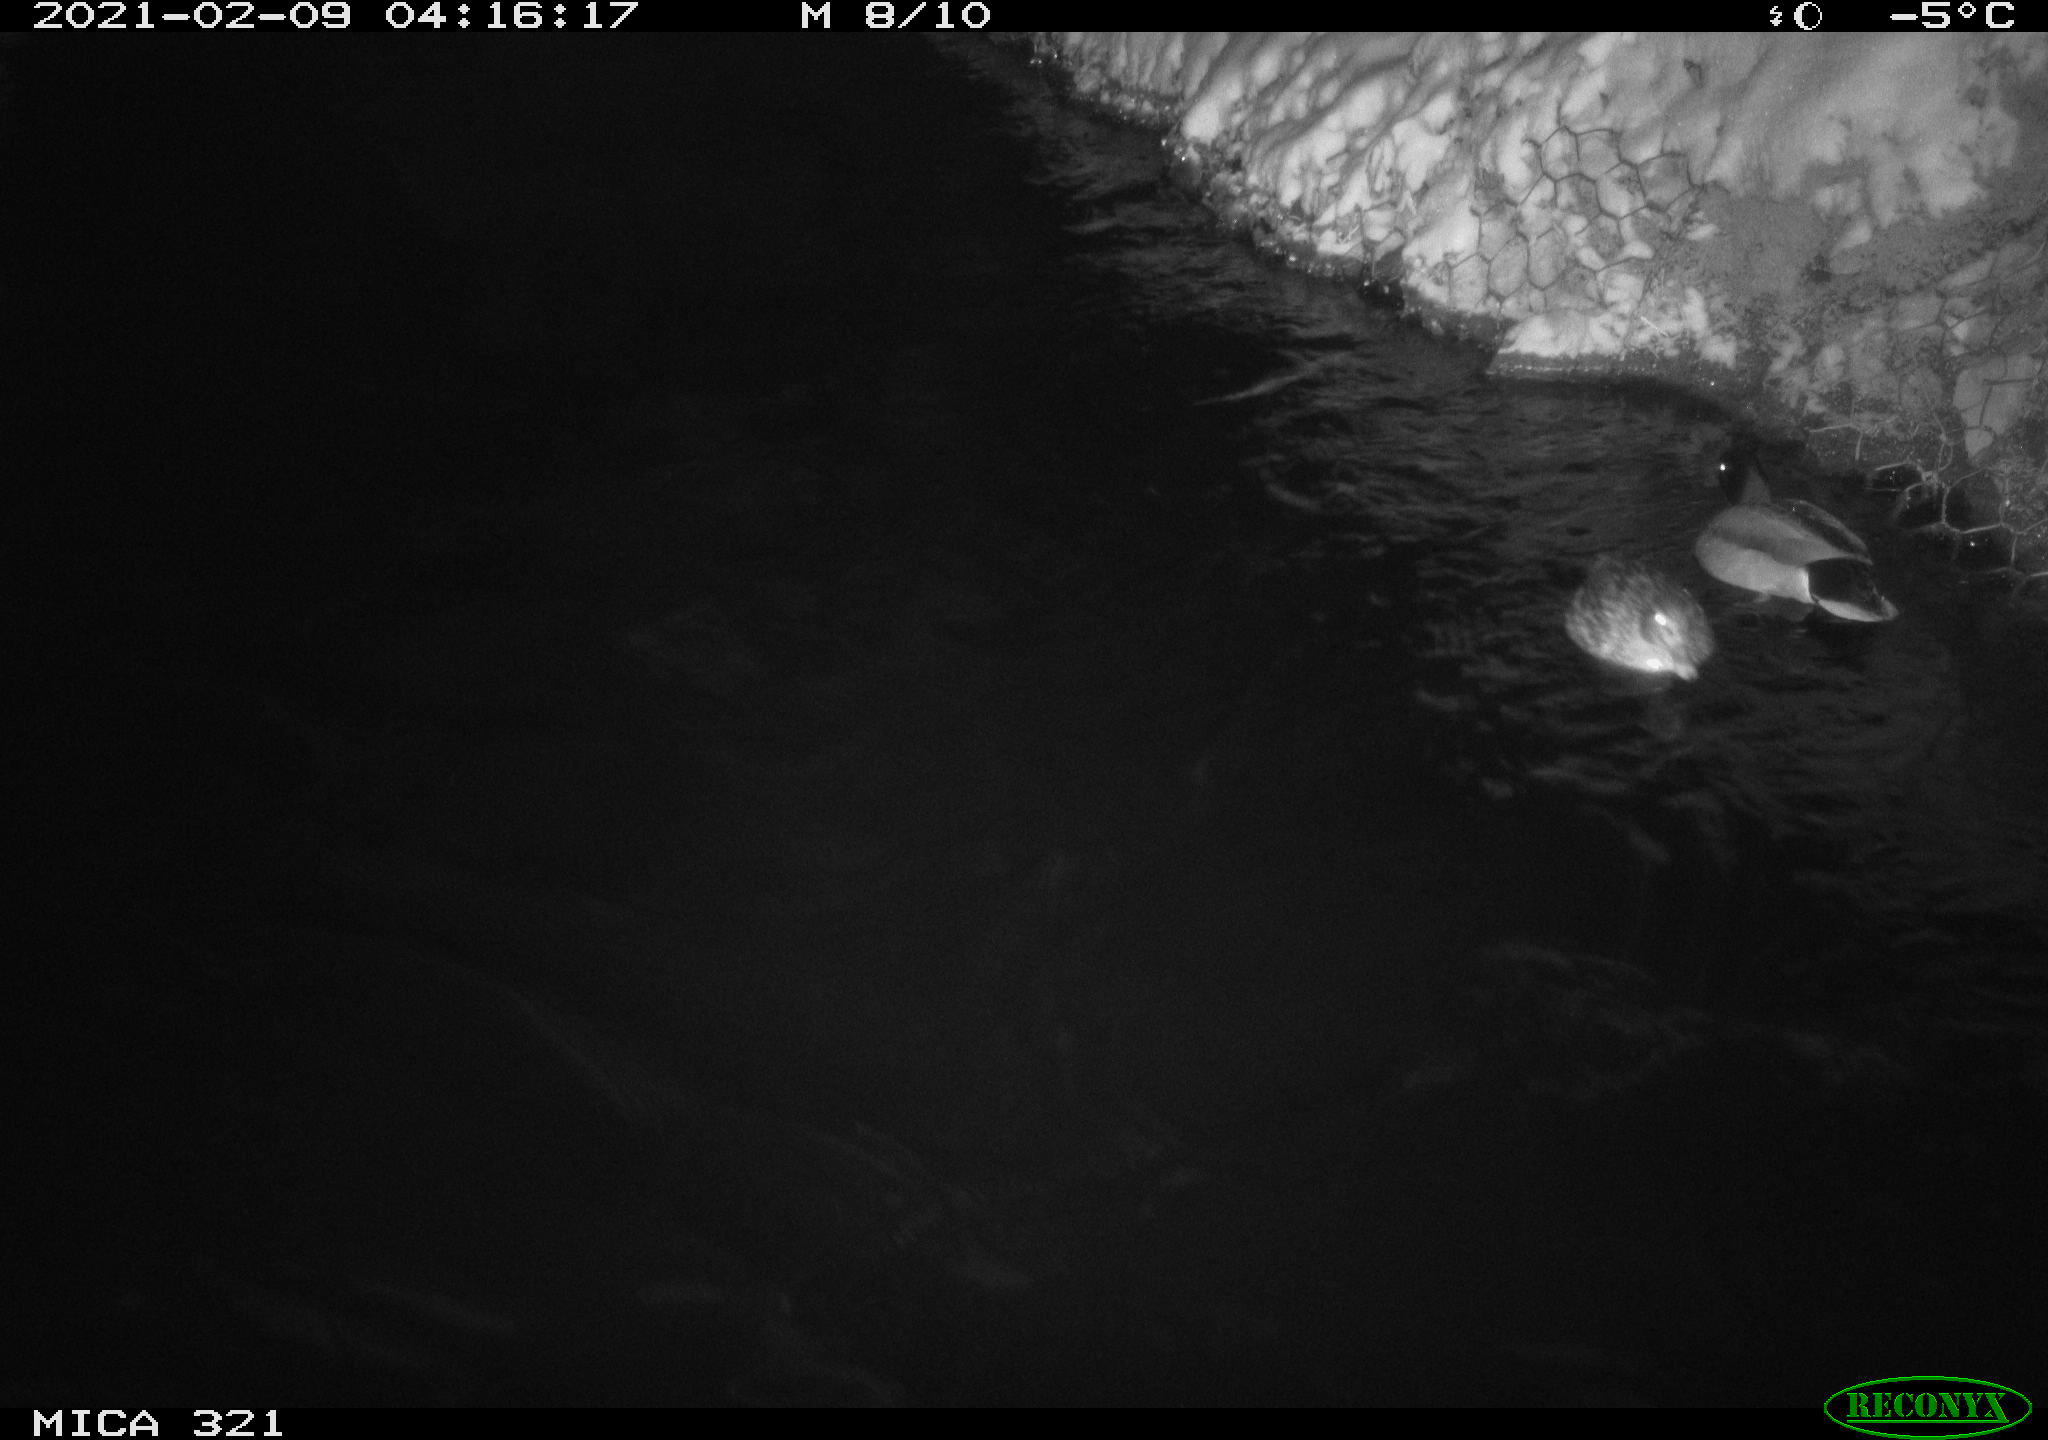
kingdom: Animalia
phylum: Chordata
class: Aves
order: Anseriformes
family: Anatidae
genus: Anas
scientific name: Anas platyrhynchos
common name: Mallard
